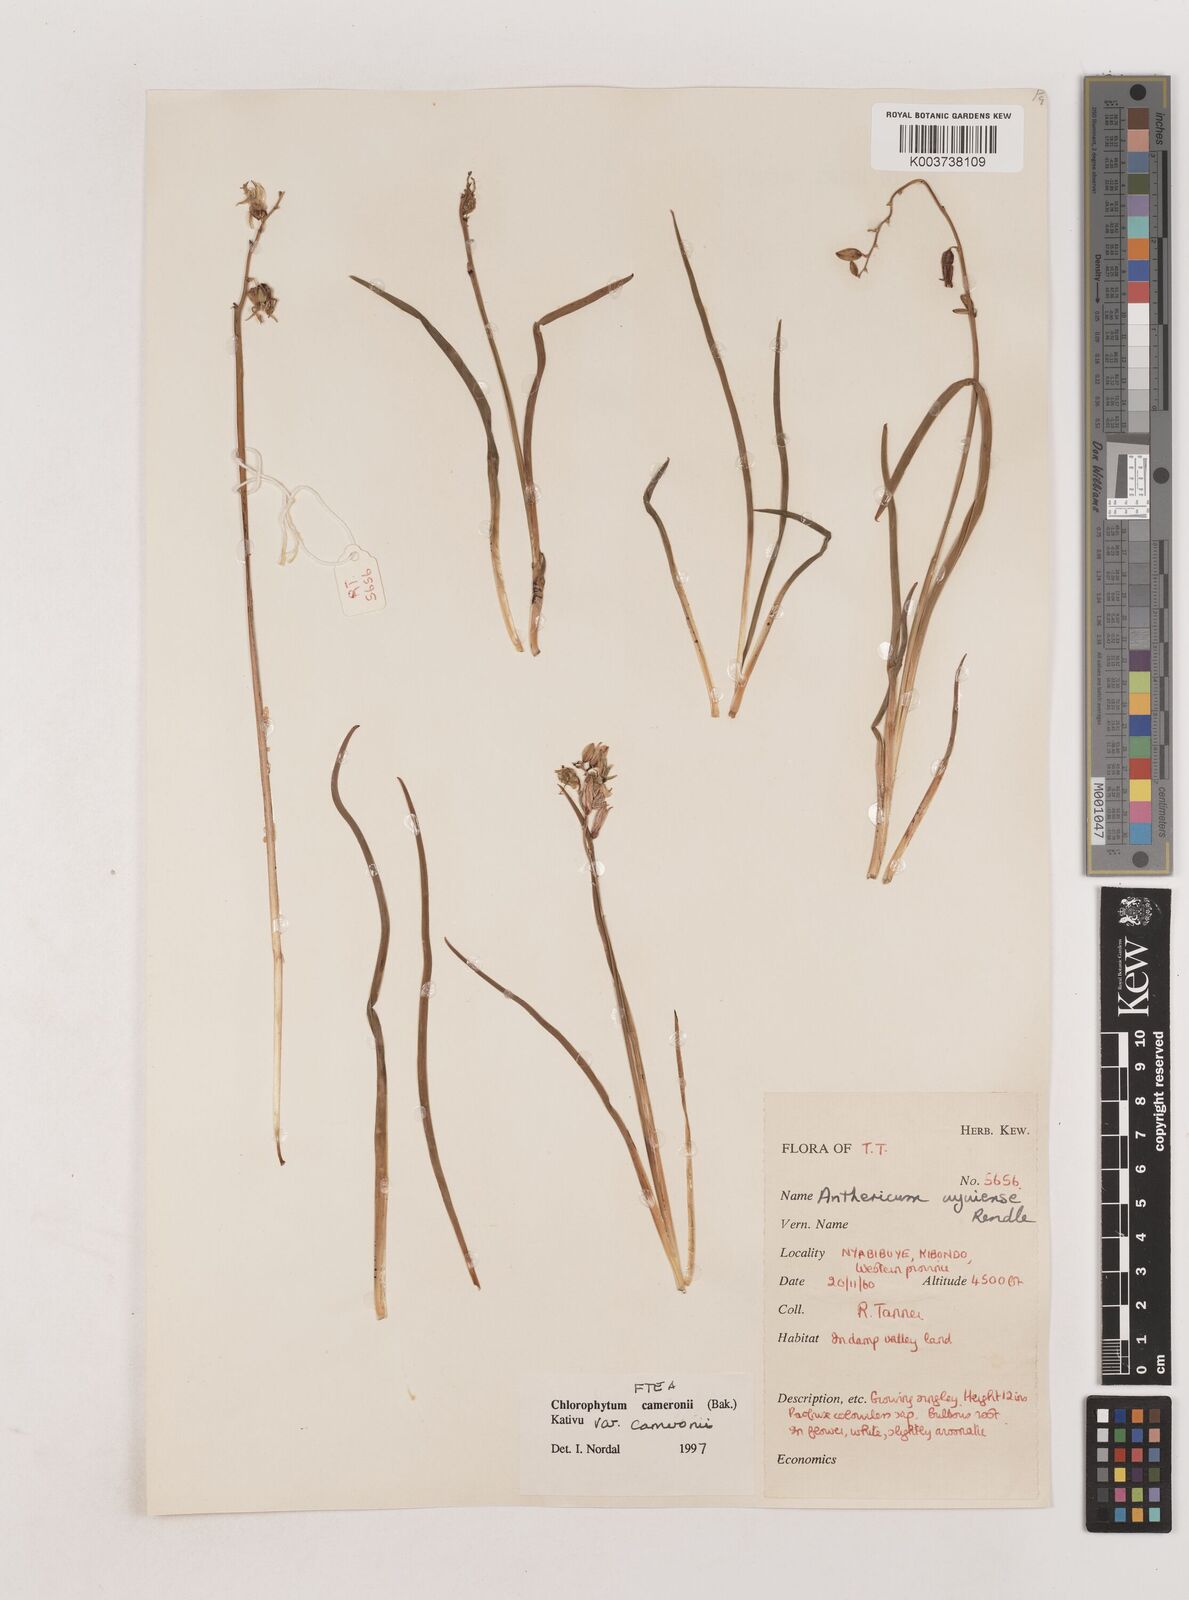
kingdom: Plantae
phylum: Tracheophyta
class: Liliopsida
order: Asparagales
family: Asparagaceae
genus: Chlorophytum
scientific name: Chlorophytum cameronii
